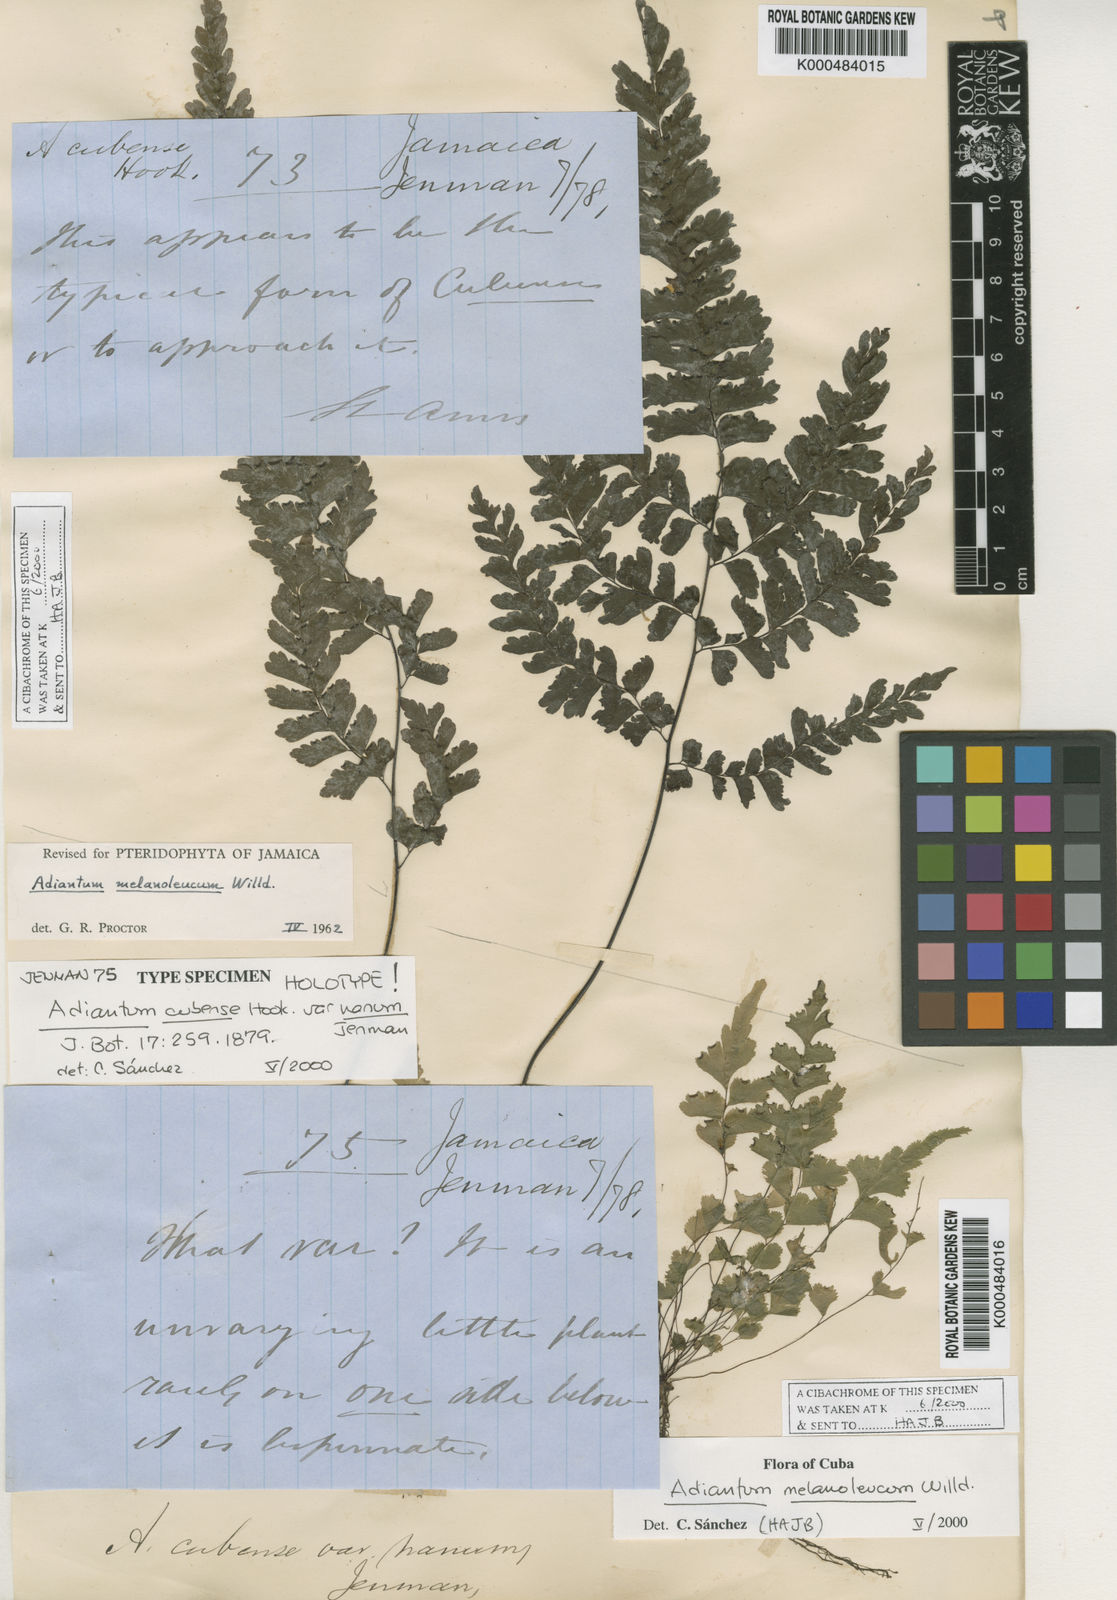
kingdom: Plantae
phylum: Tracheophyta
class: Polypodiopsida
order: Polypodiales
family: Pteridaceae
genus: Adiantum
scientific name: Adiantum melanoleucum
